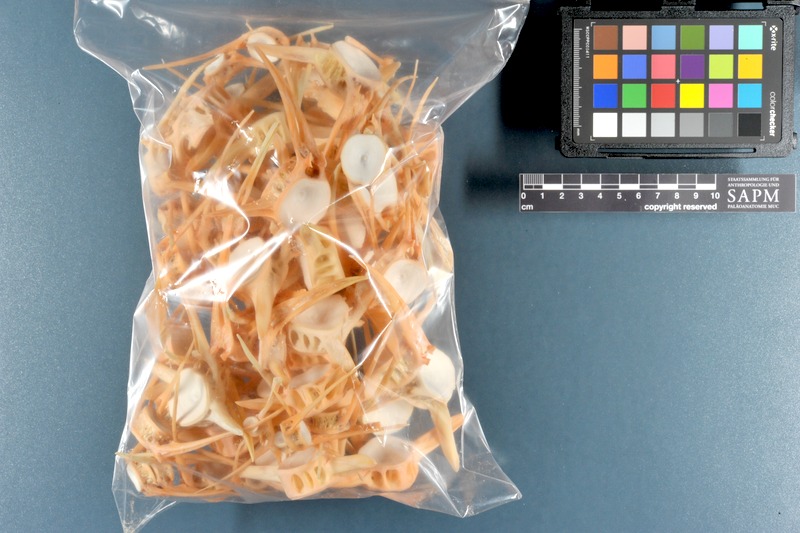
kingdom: Animalia
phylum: Chordata
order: Osteoglossiformes
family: Arapaimidae
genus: Arapaima
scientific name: Arapaima gigas
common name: Arapaima
